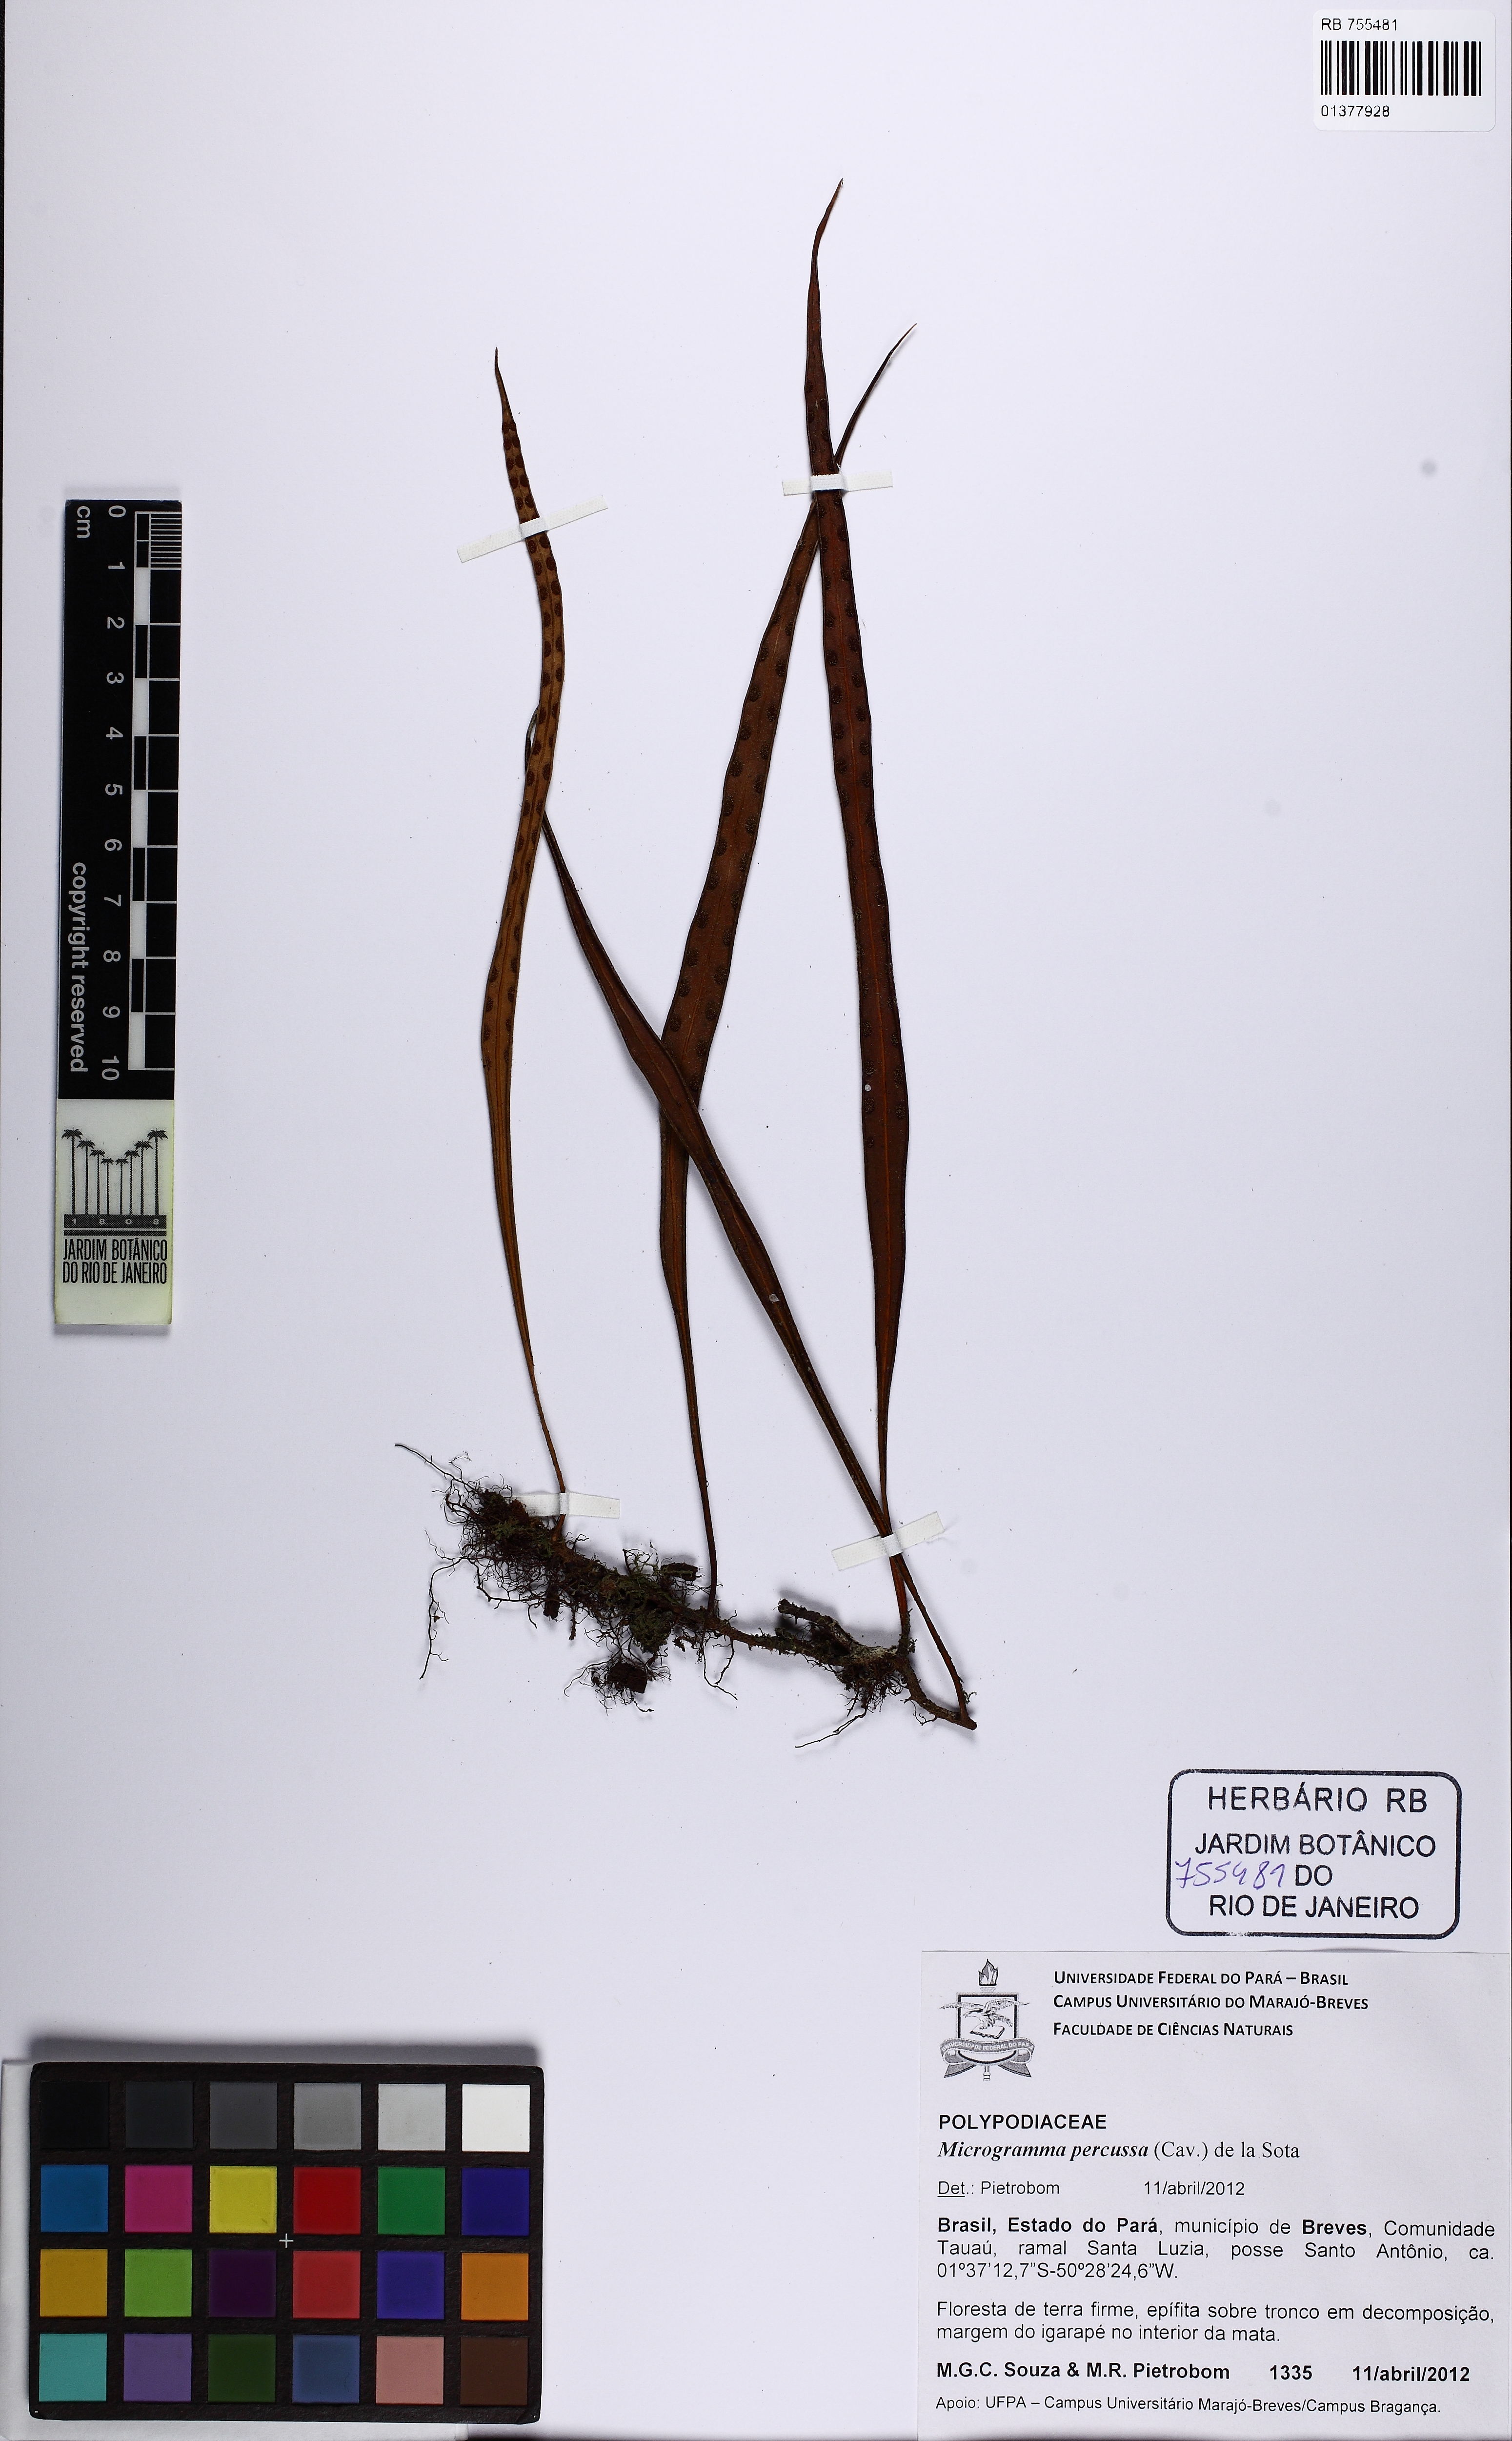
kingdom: Plantae
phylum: Tracheophyta
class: Polypodiopsida
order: Polypodiales
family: Polypodiaceae
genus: Microgramma
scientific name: Microgramma percussa
